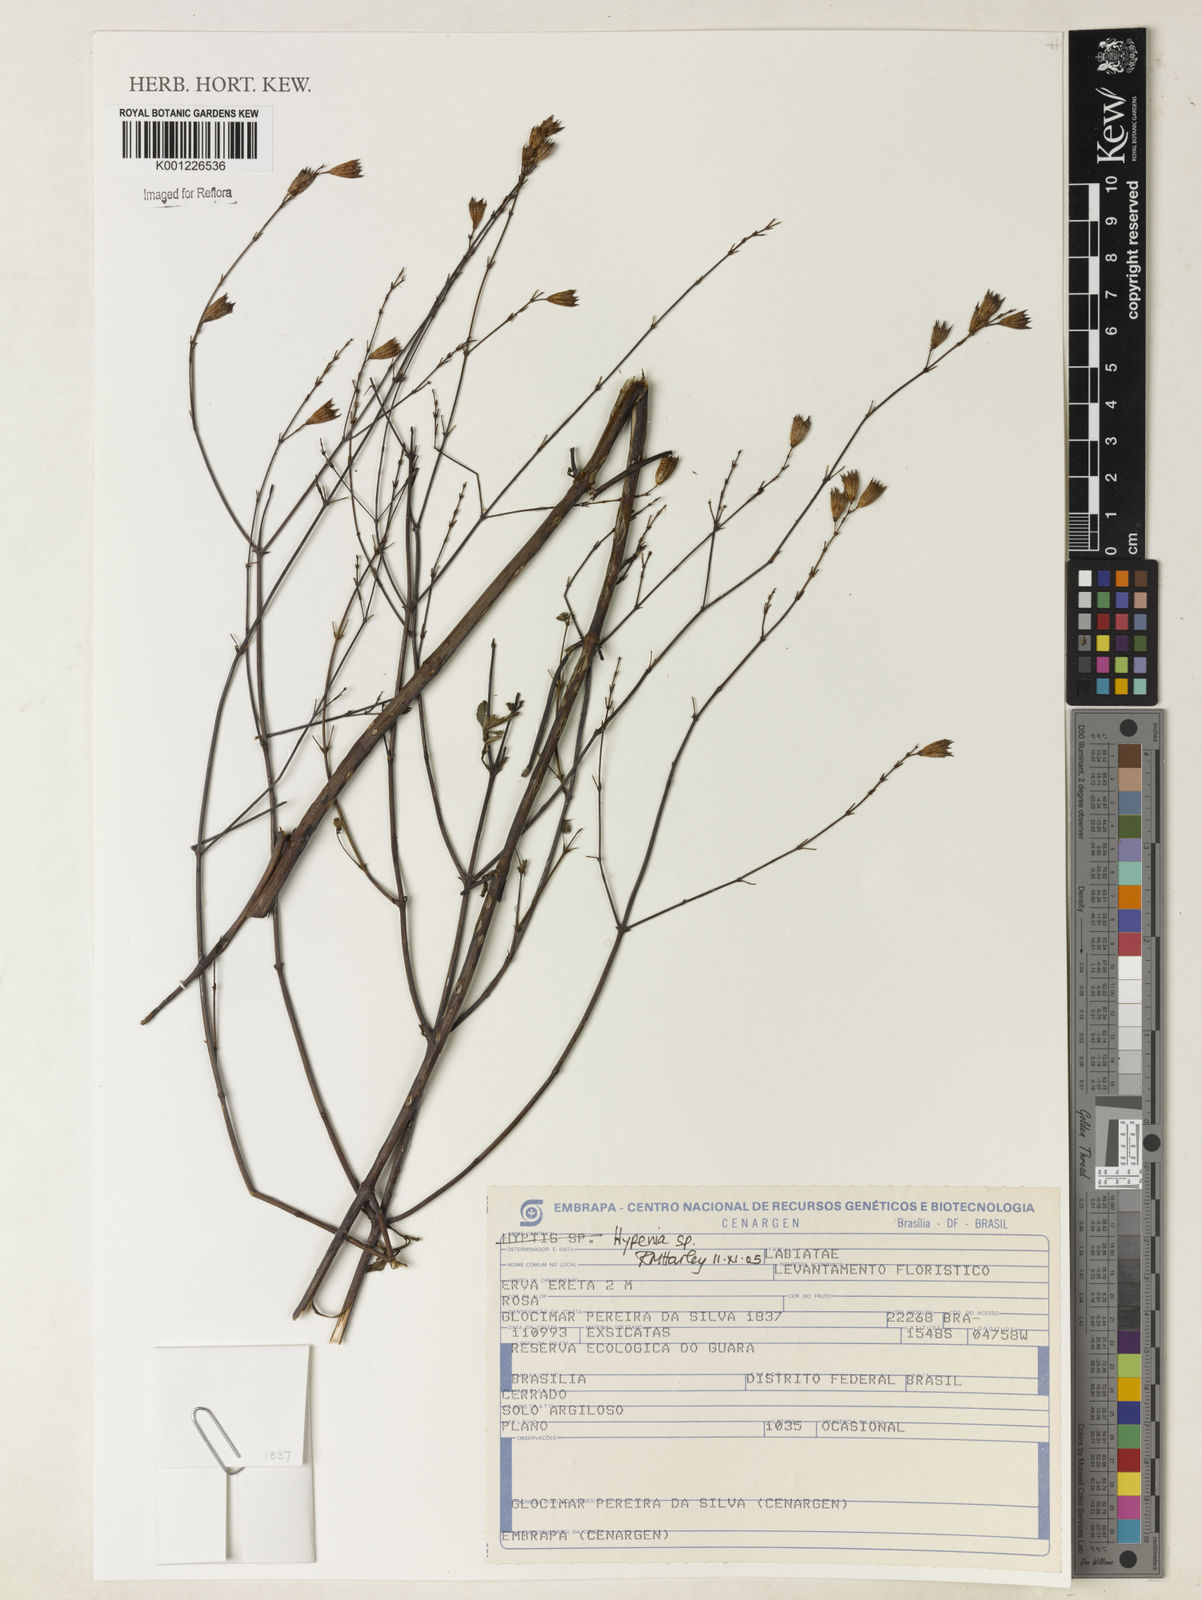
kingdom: Plantae
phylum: Tracheophyta
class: Magnoliopsida
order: Lamiales
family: Lamiaceae
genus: Hypenia
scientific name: Hypenia
